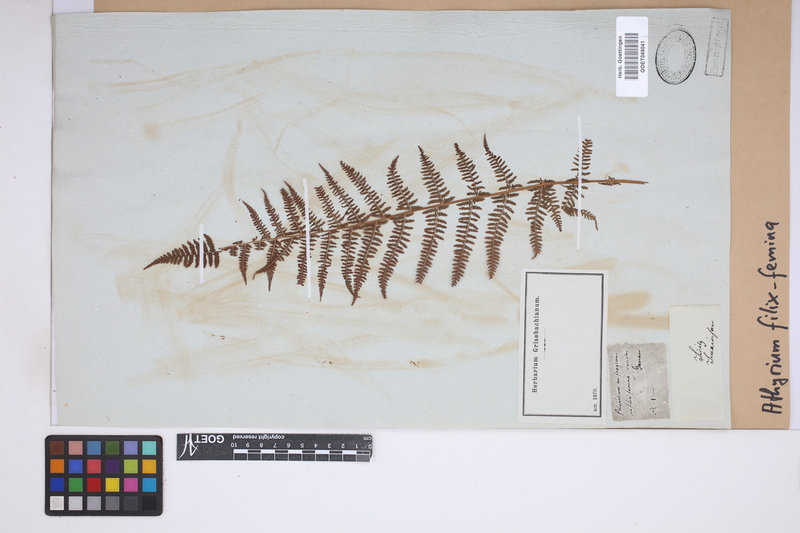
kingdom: Plantae
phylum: Tracheophyta
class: Polypodiopsida
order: Polypodiales
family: Athyriaceae
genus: Athyrium
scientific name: Athyrium filix-femina
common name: Lady fern
